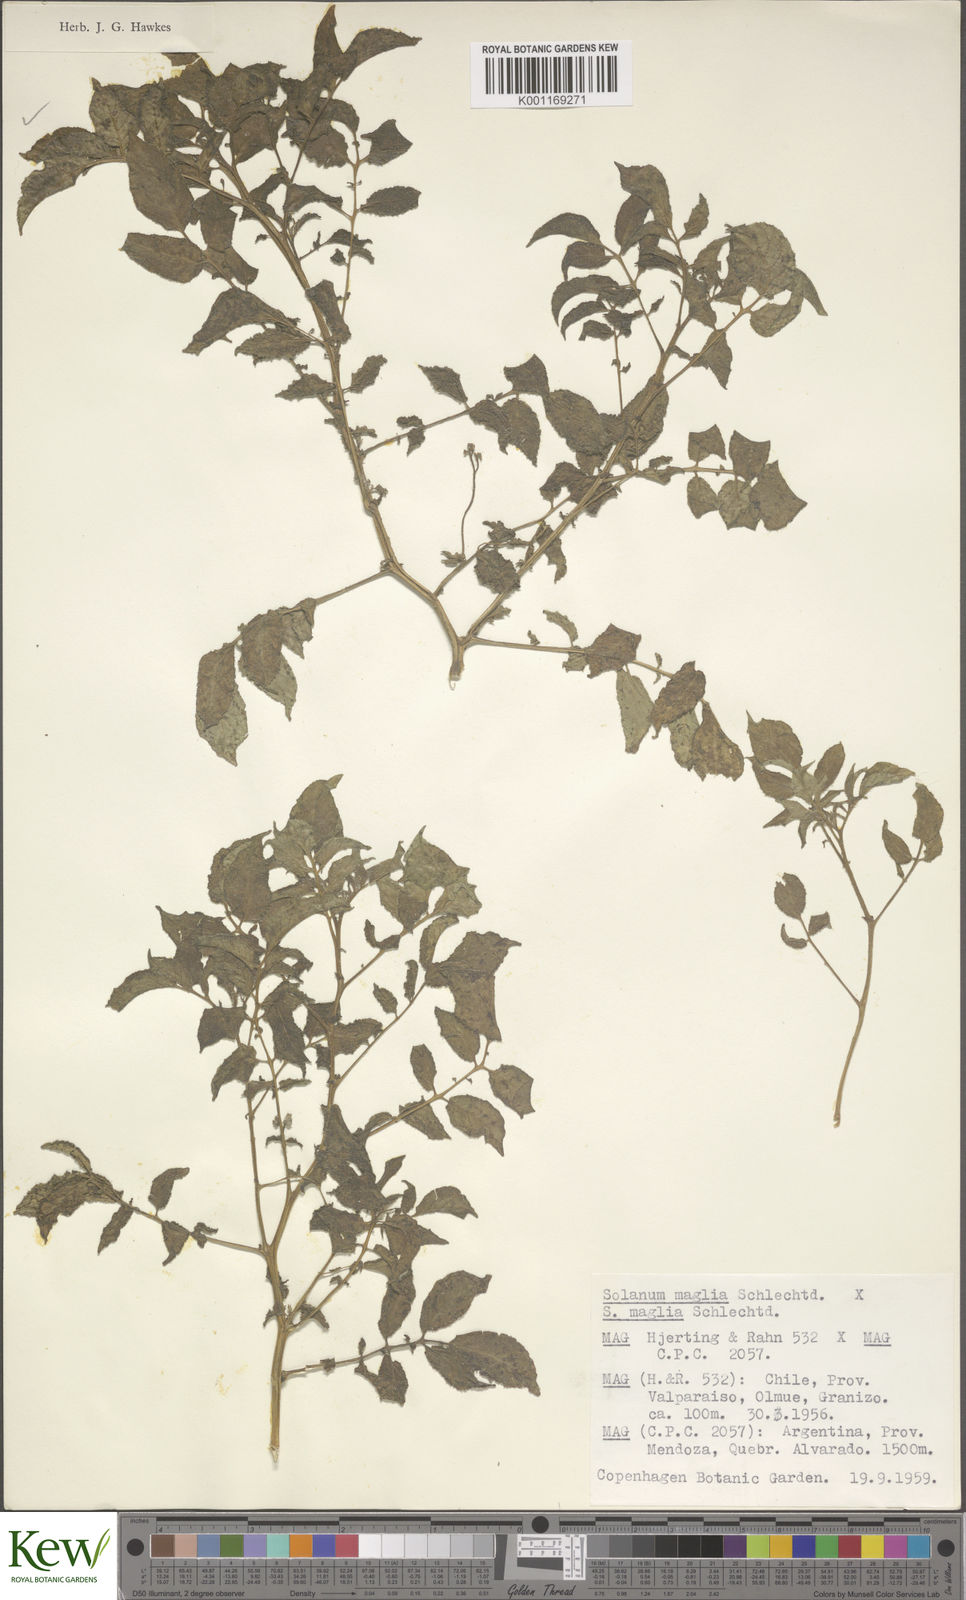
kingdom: Plantae
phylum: Tracheophyta
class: Magnoliopsida
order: Solanales
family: Solanaceae
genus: Solanum
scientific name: Solanum maglia
